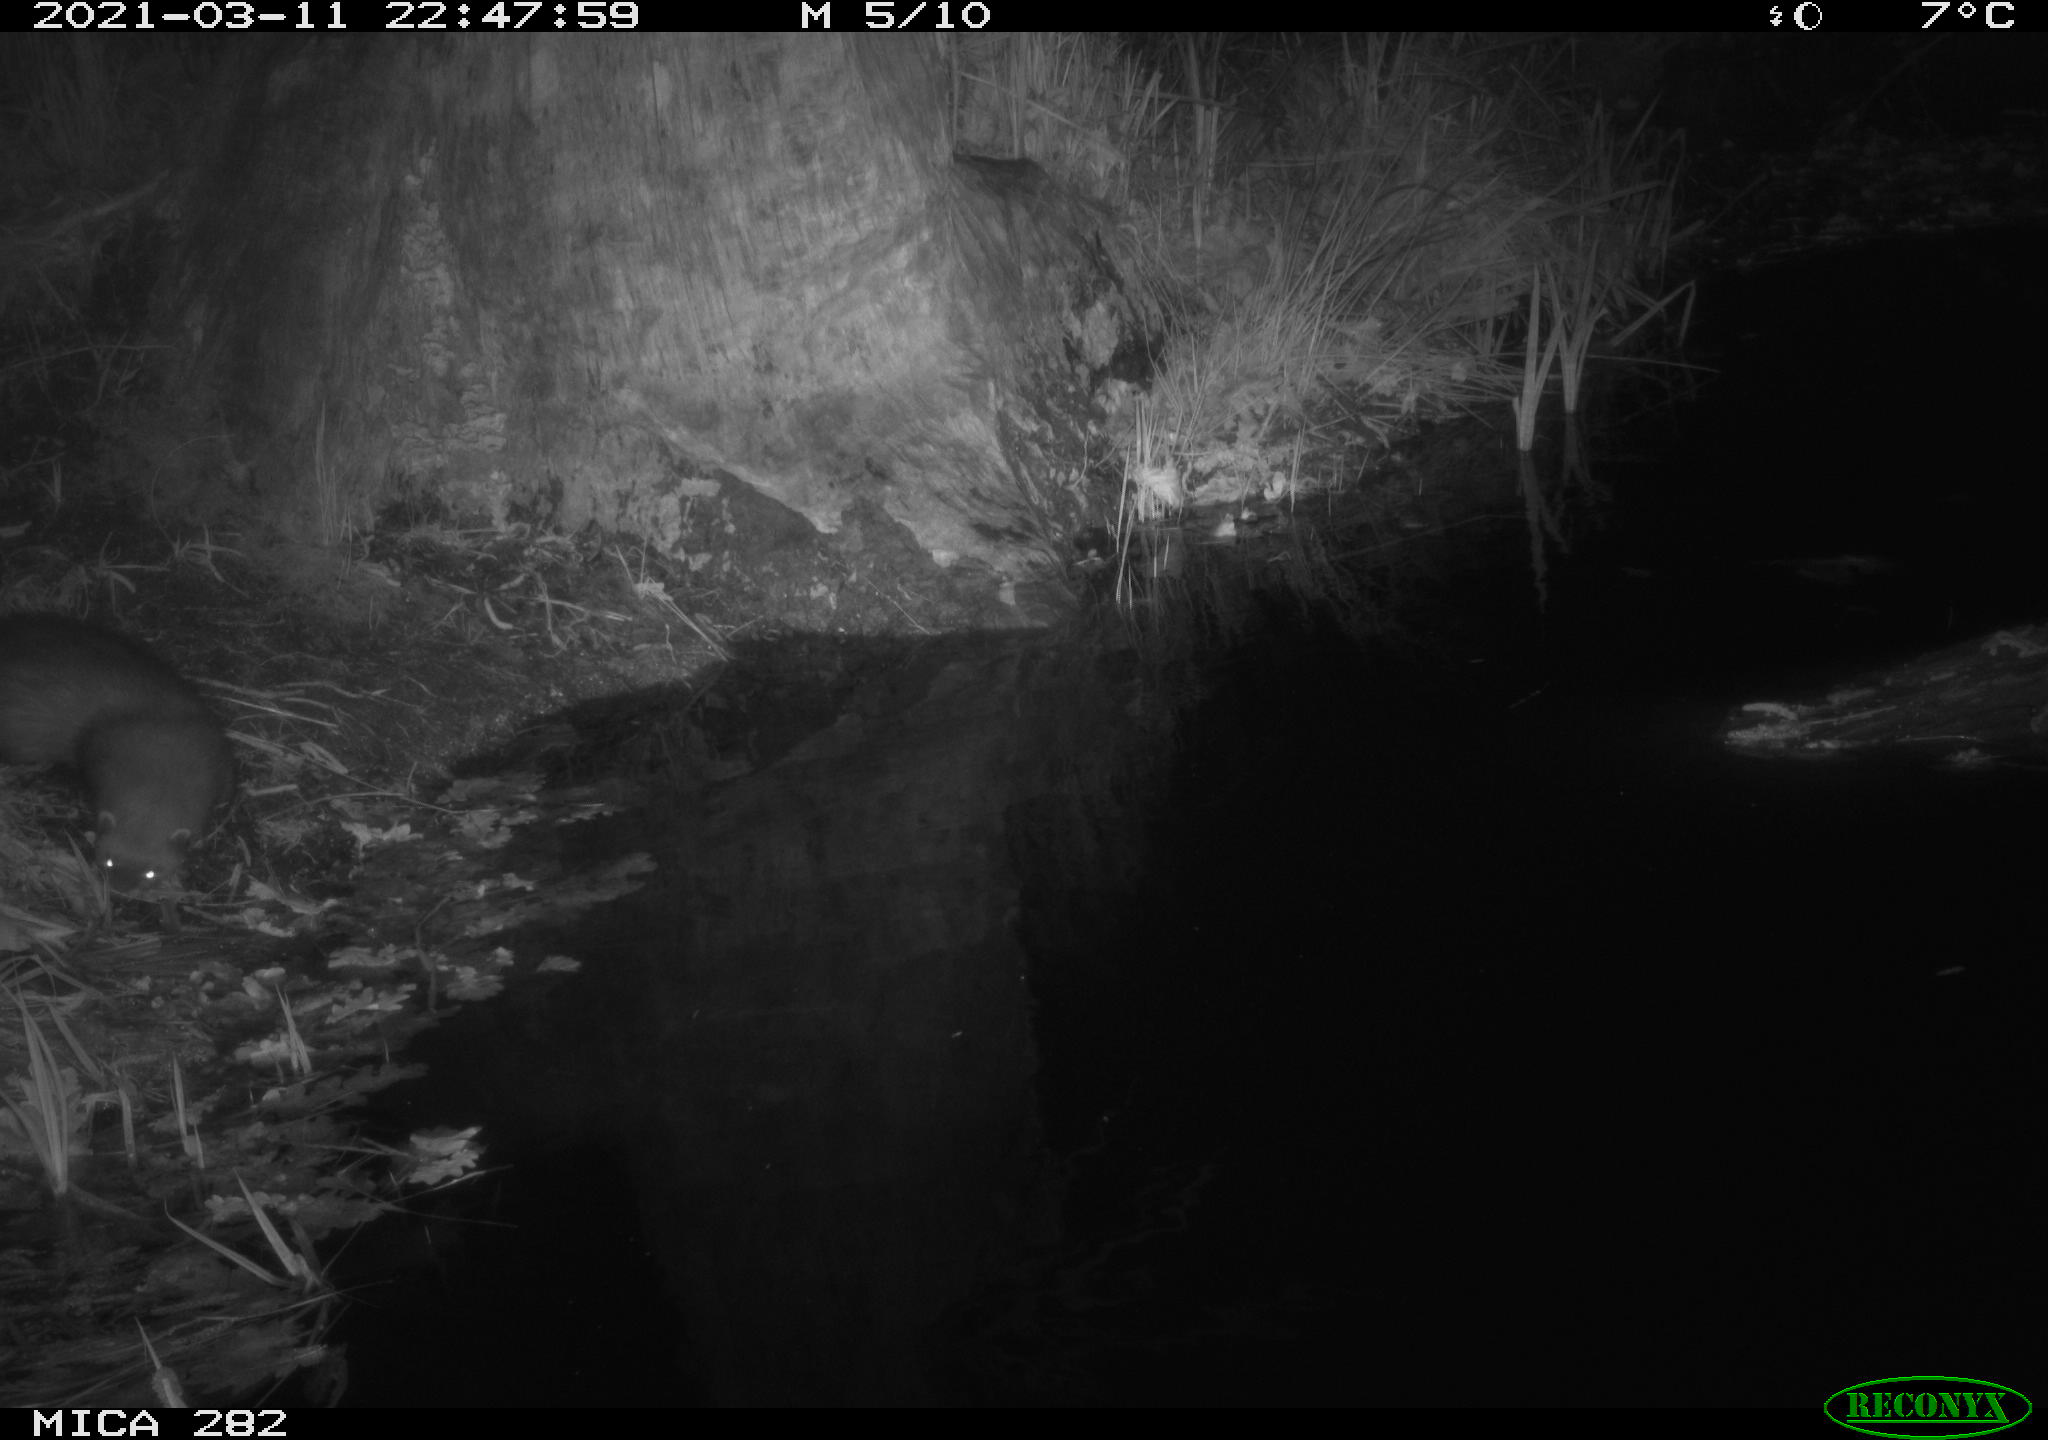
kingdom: Animalia
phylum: Chordata
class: Mammalia
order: Carnivora
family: Mustelidae
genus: Mustela
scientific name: Mustela putorius
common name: European polecat
